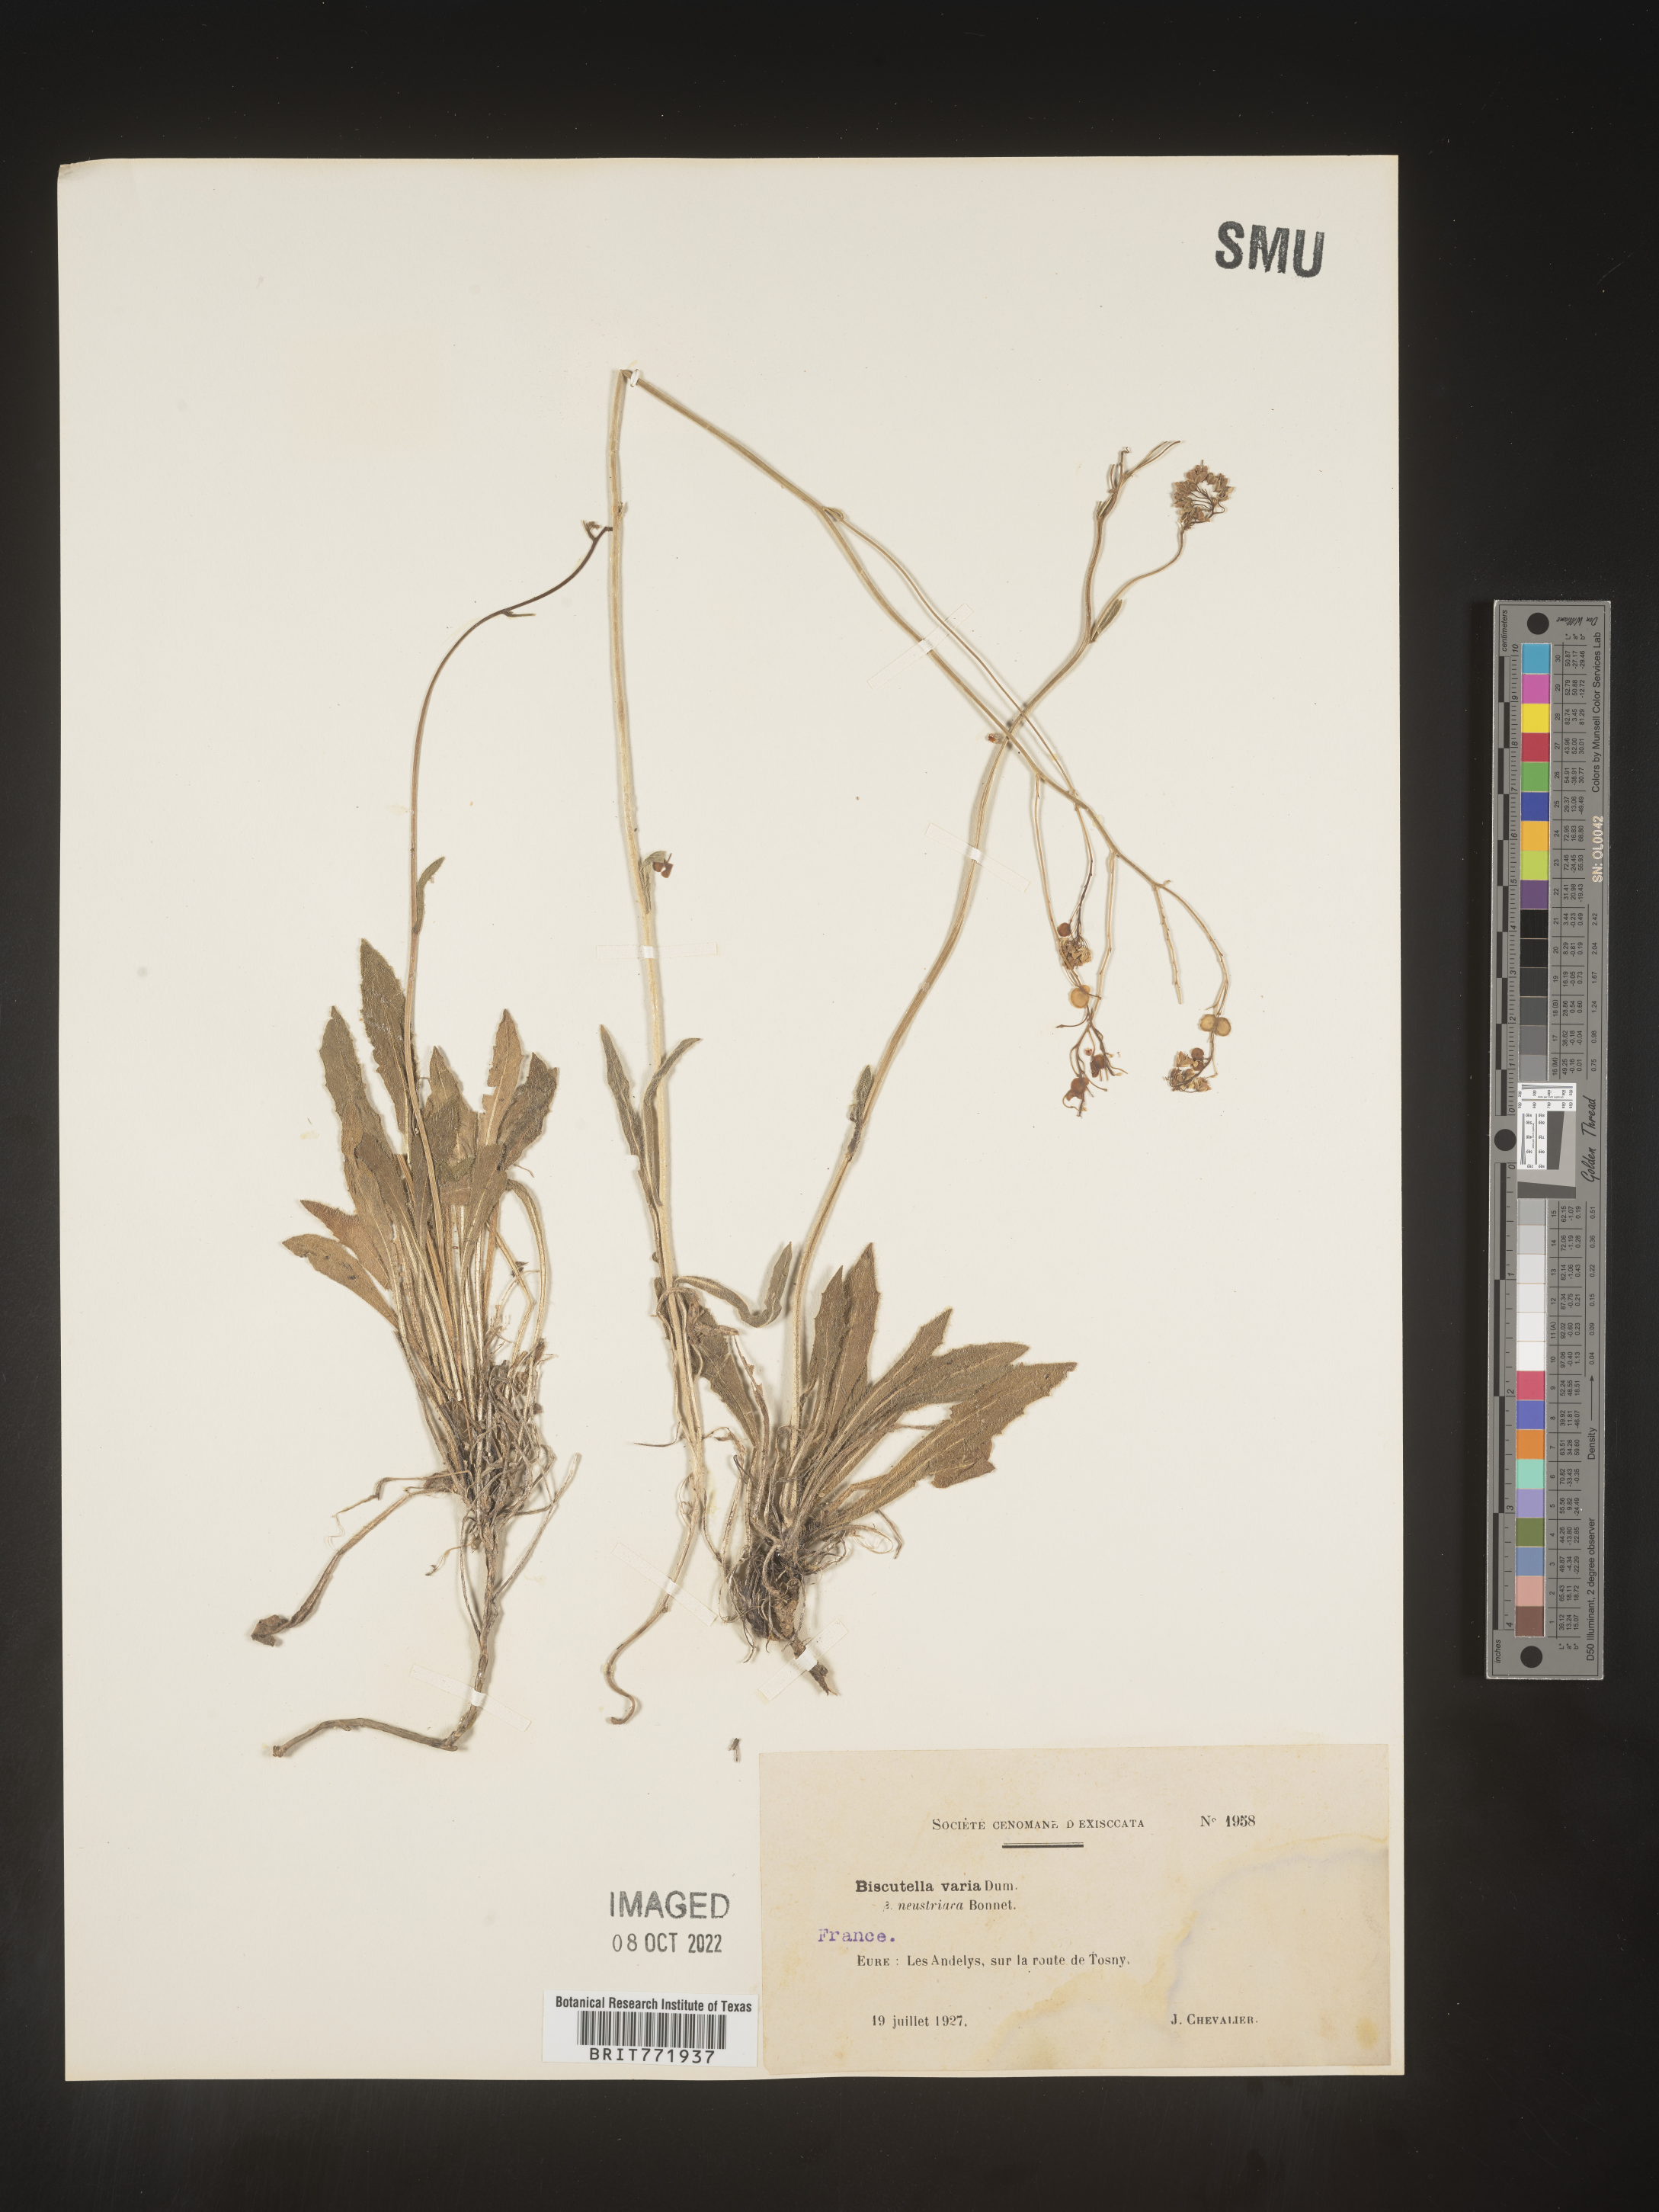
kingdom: Plantae
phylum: Tracheophyta
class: Magnoliopsida
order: Brassicales
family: Brassicaceae
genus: Biscutella
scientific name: Biscutella
